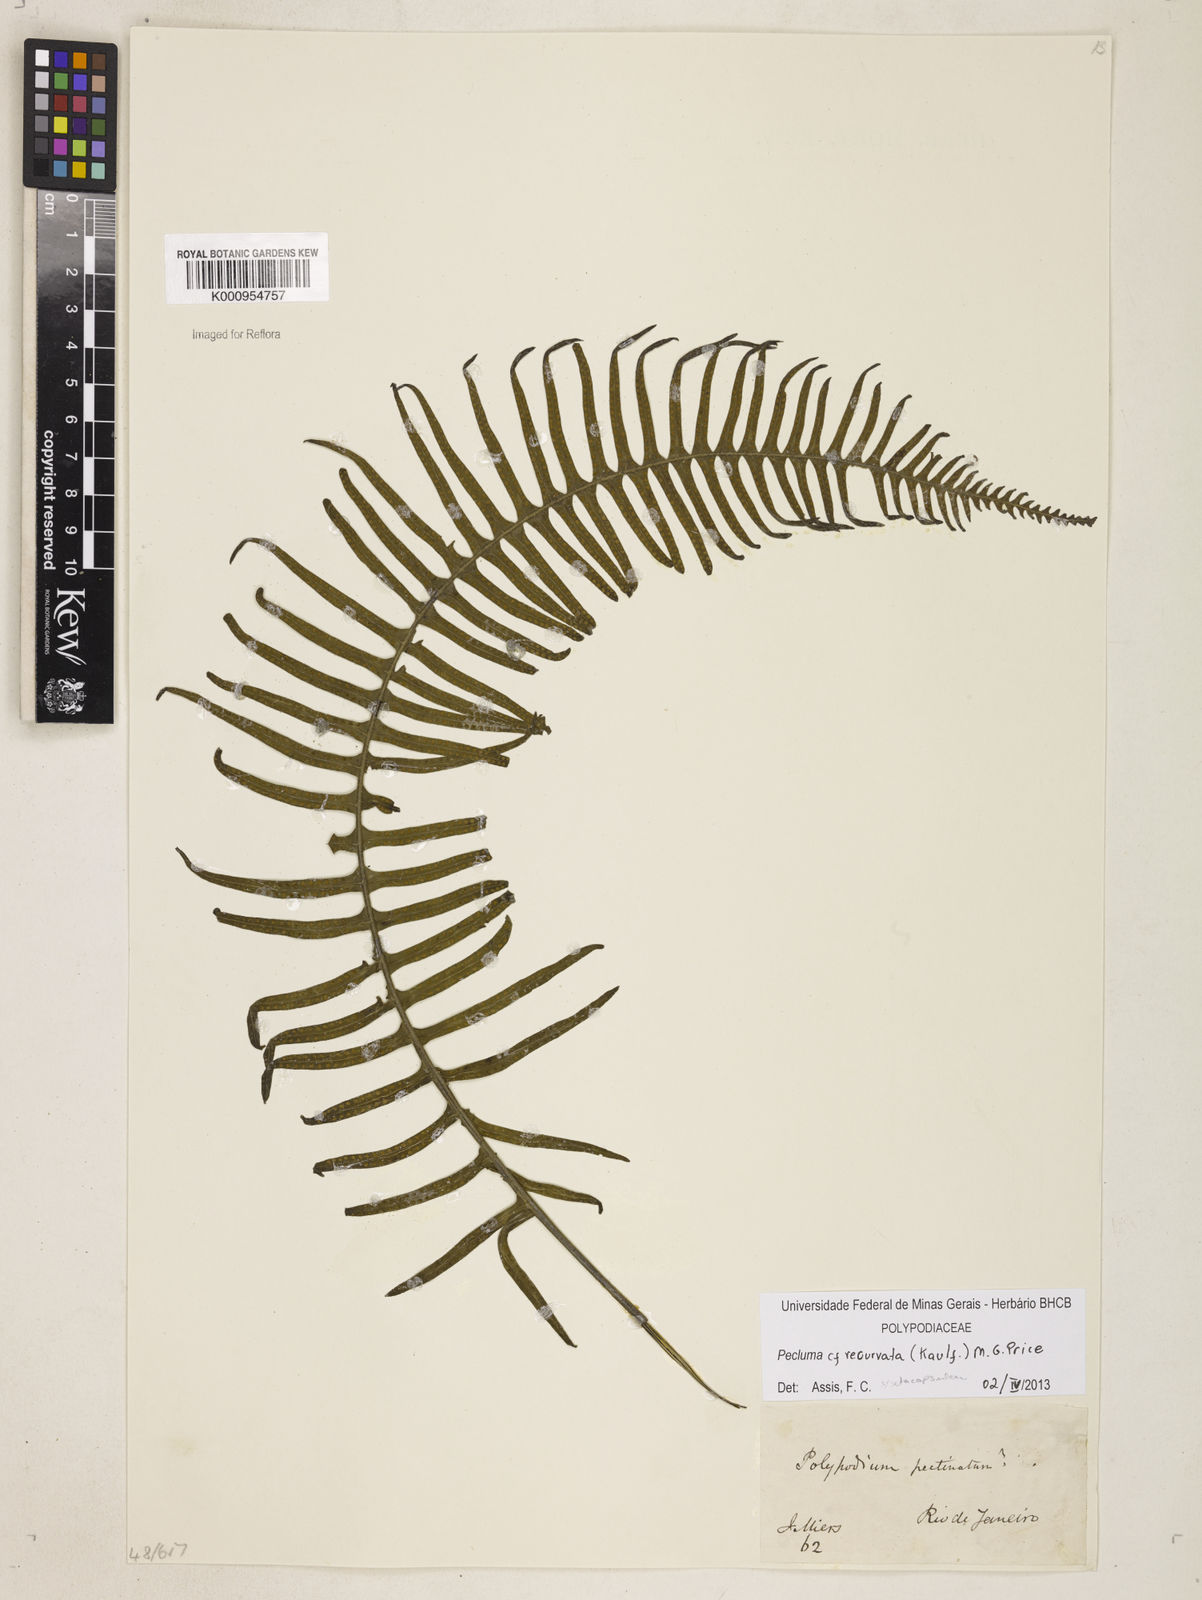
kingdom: Plantae
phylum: Tracheophyta
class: Polypodiopsida
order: Polypodiales
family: Polypodiaceae
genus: Pecluma
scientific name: Pecluma recurvata
